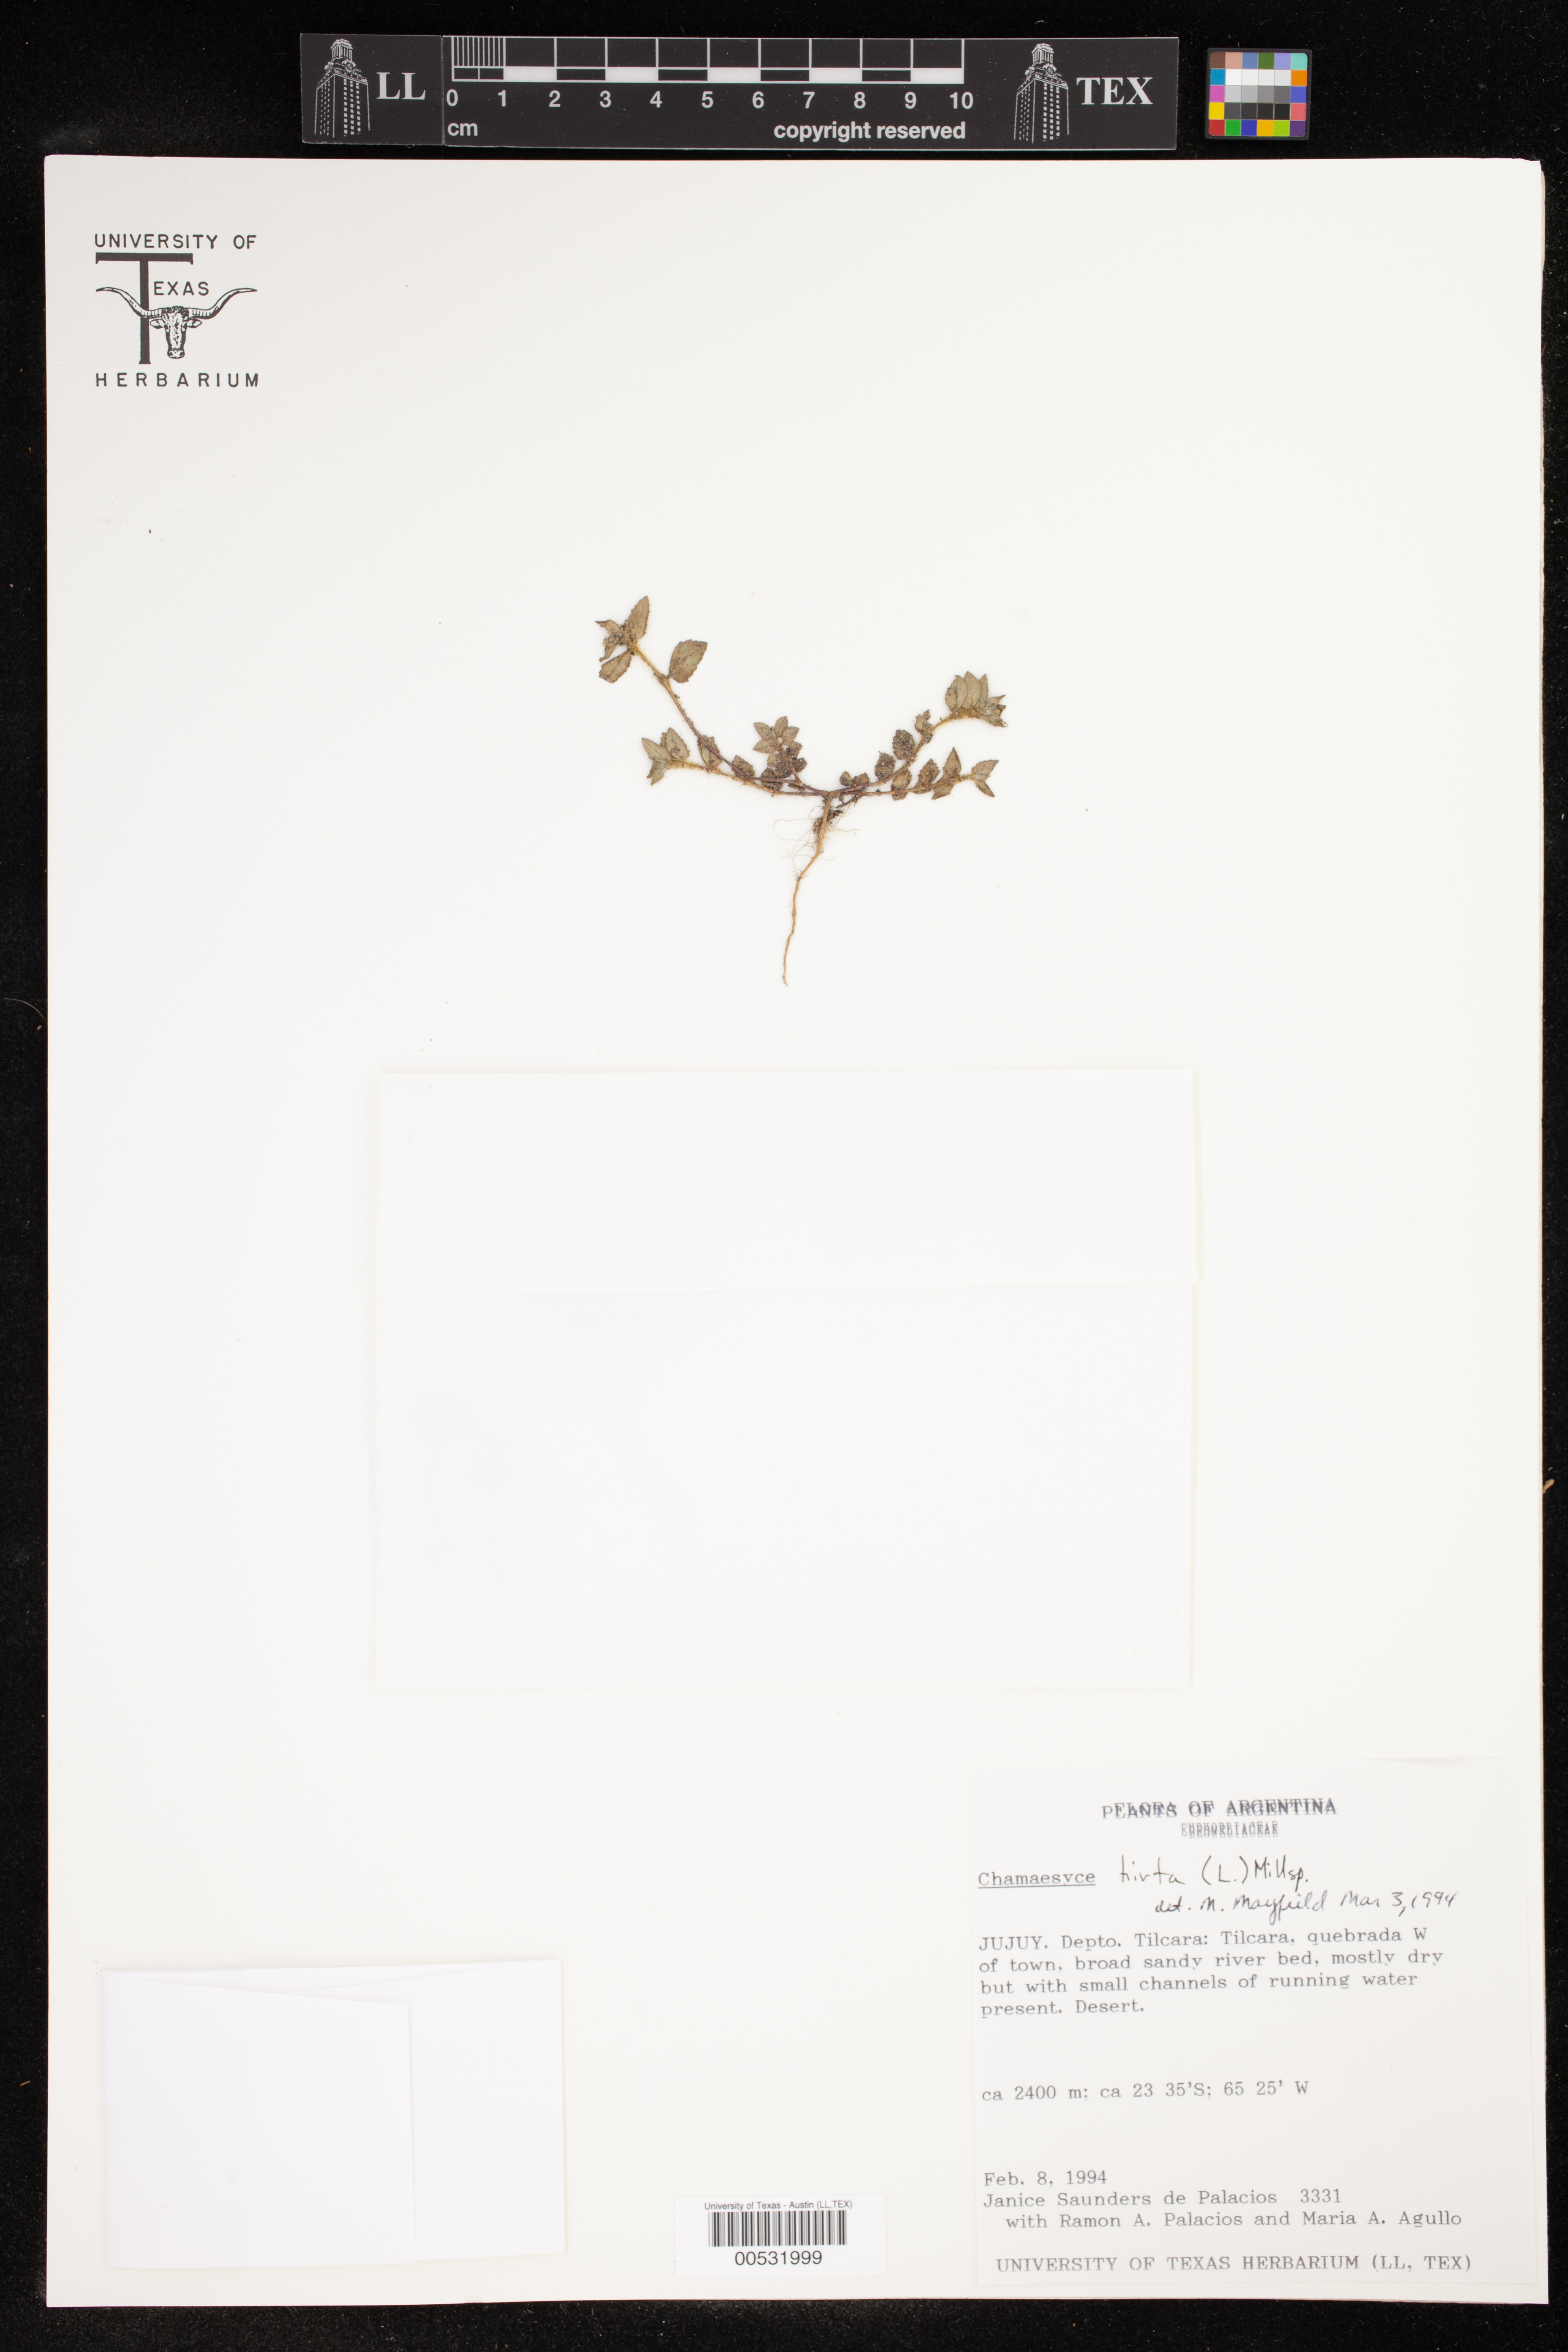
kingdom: Plantae
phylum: Tracheophyta
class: Magnoliopsida
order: Malpighiales
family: Euphorbiaceae
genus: Euphorbia
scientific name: Euphorbia hirta
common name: Pillpod sandmat
